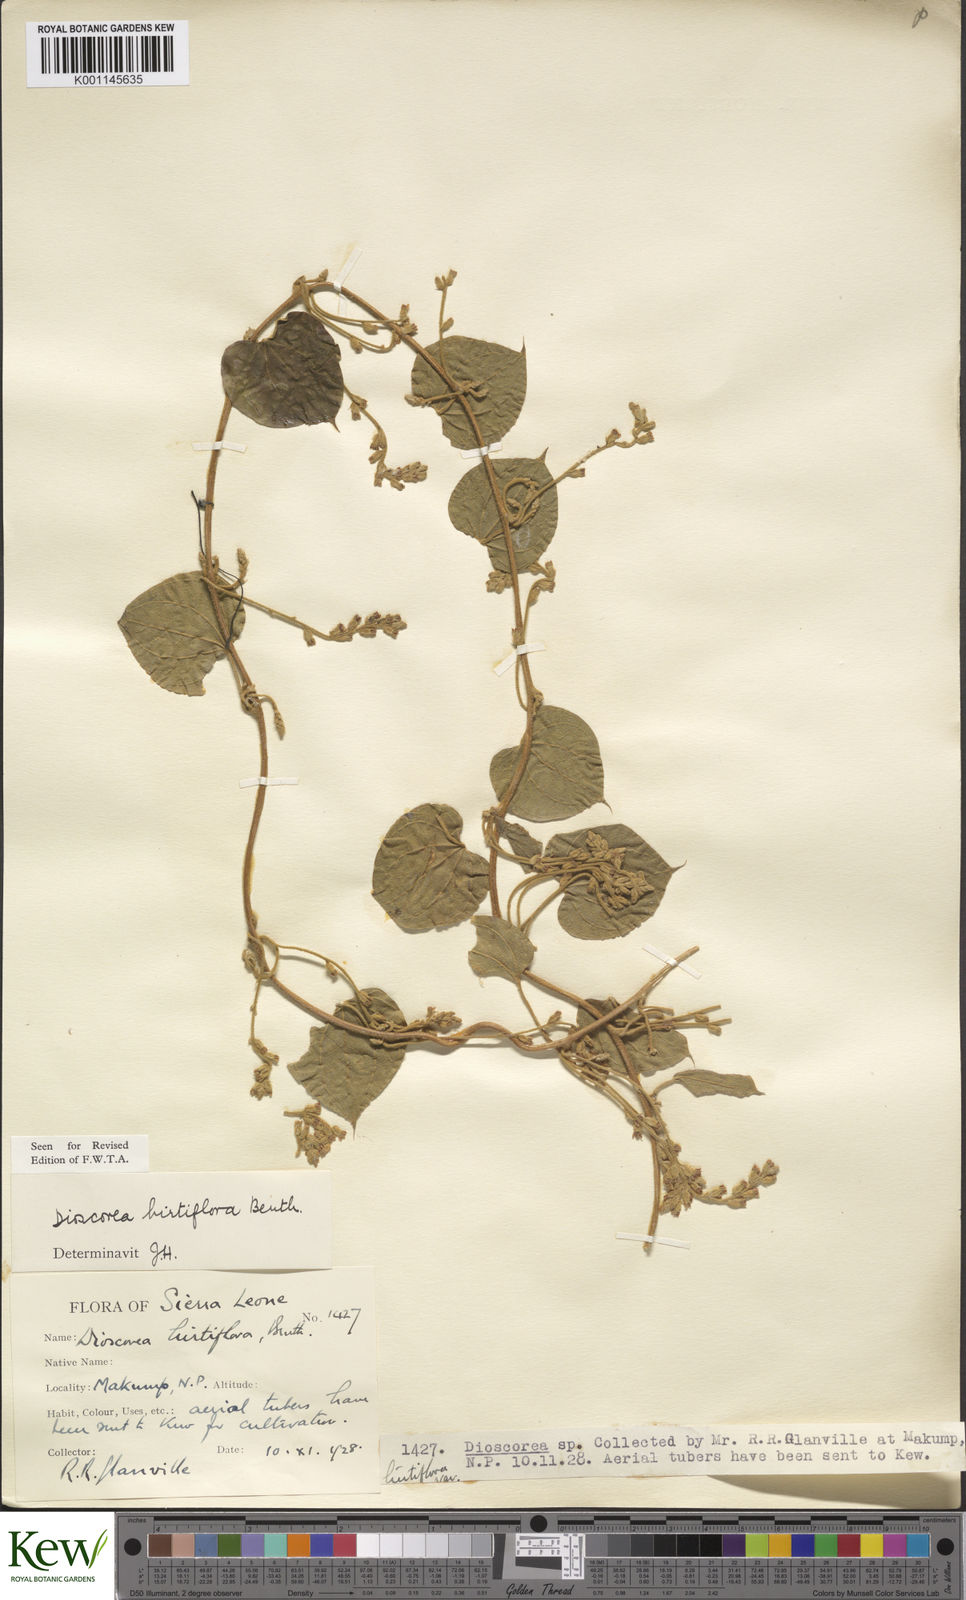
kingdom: Plantae
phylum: Tracheophyta
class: Liliopsida
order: Dioscoreales
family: Dioscoreaceae
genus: Dioscorea
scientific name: Dioscorea hirtiflora
